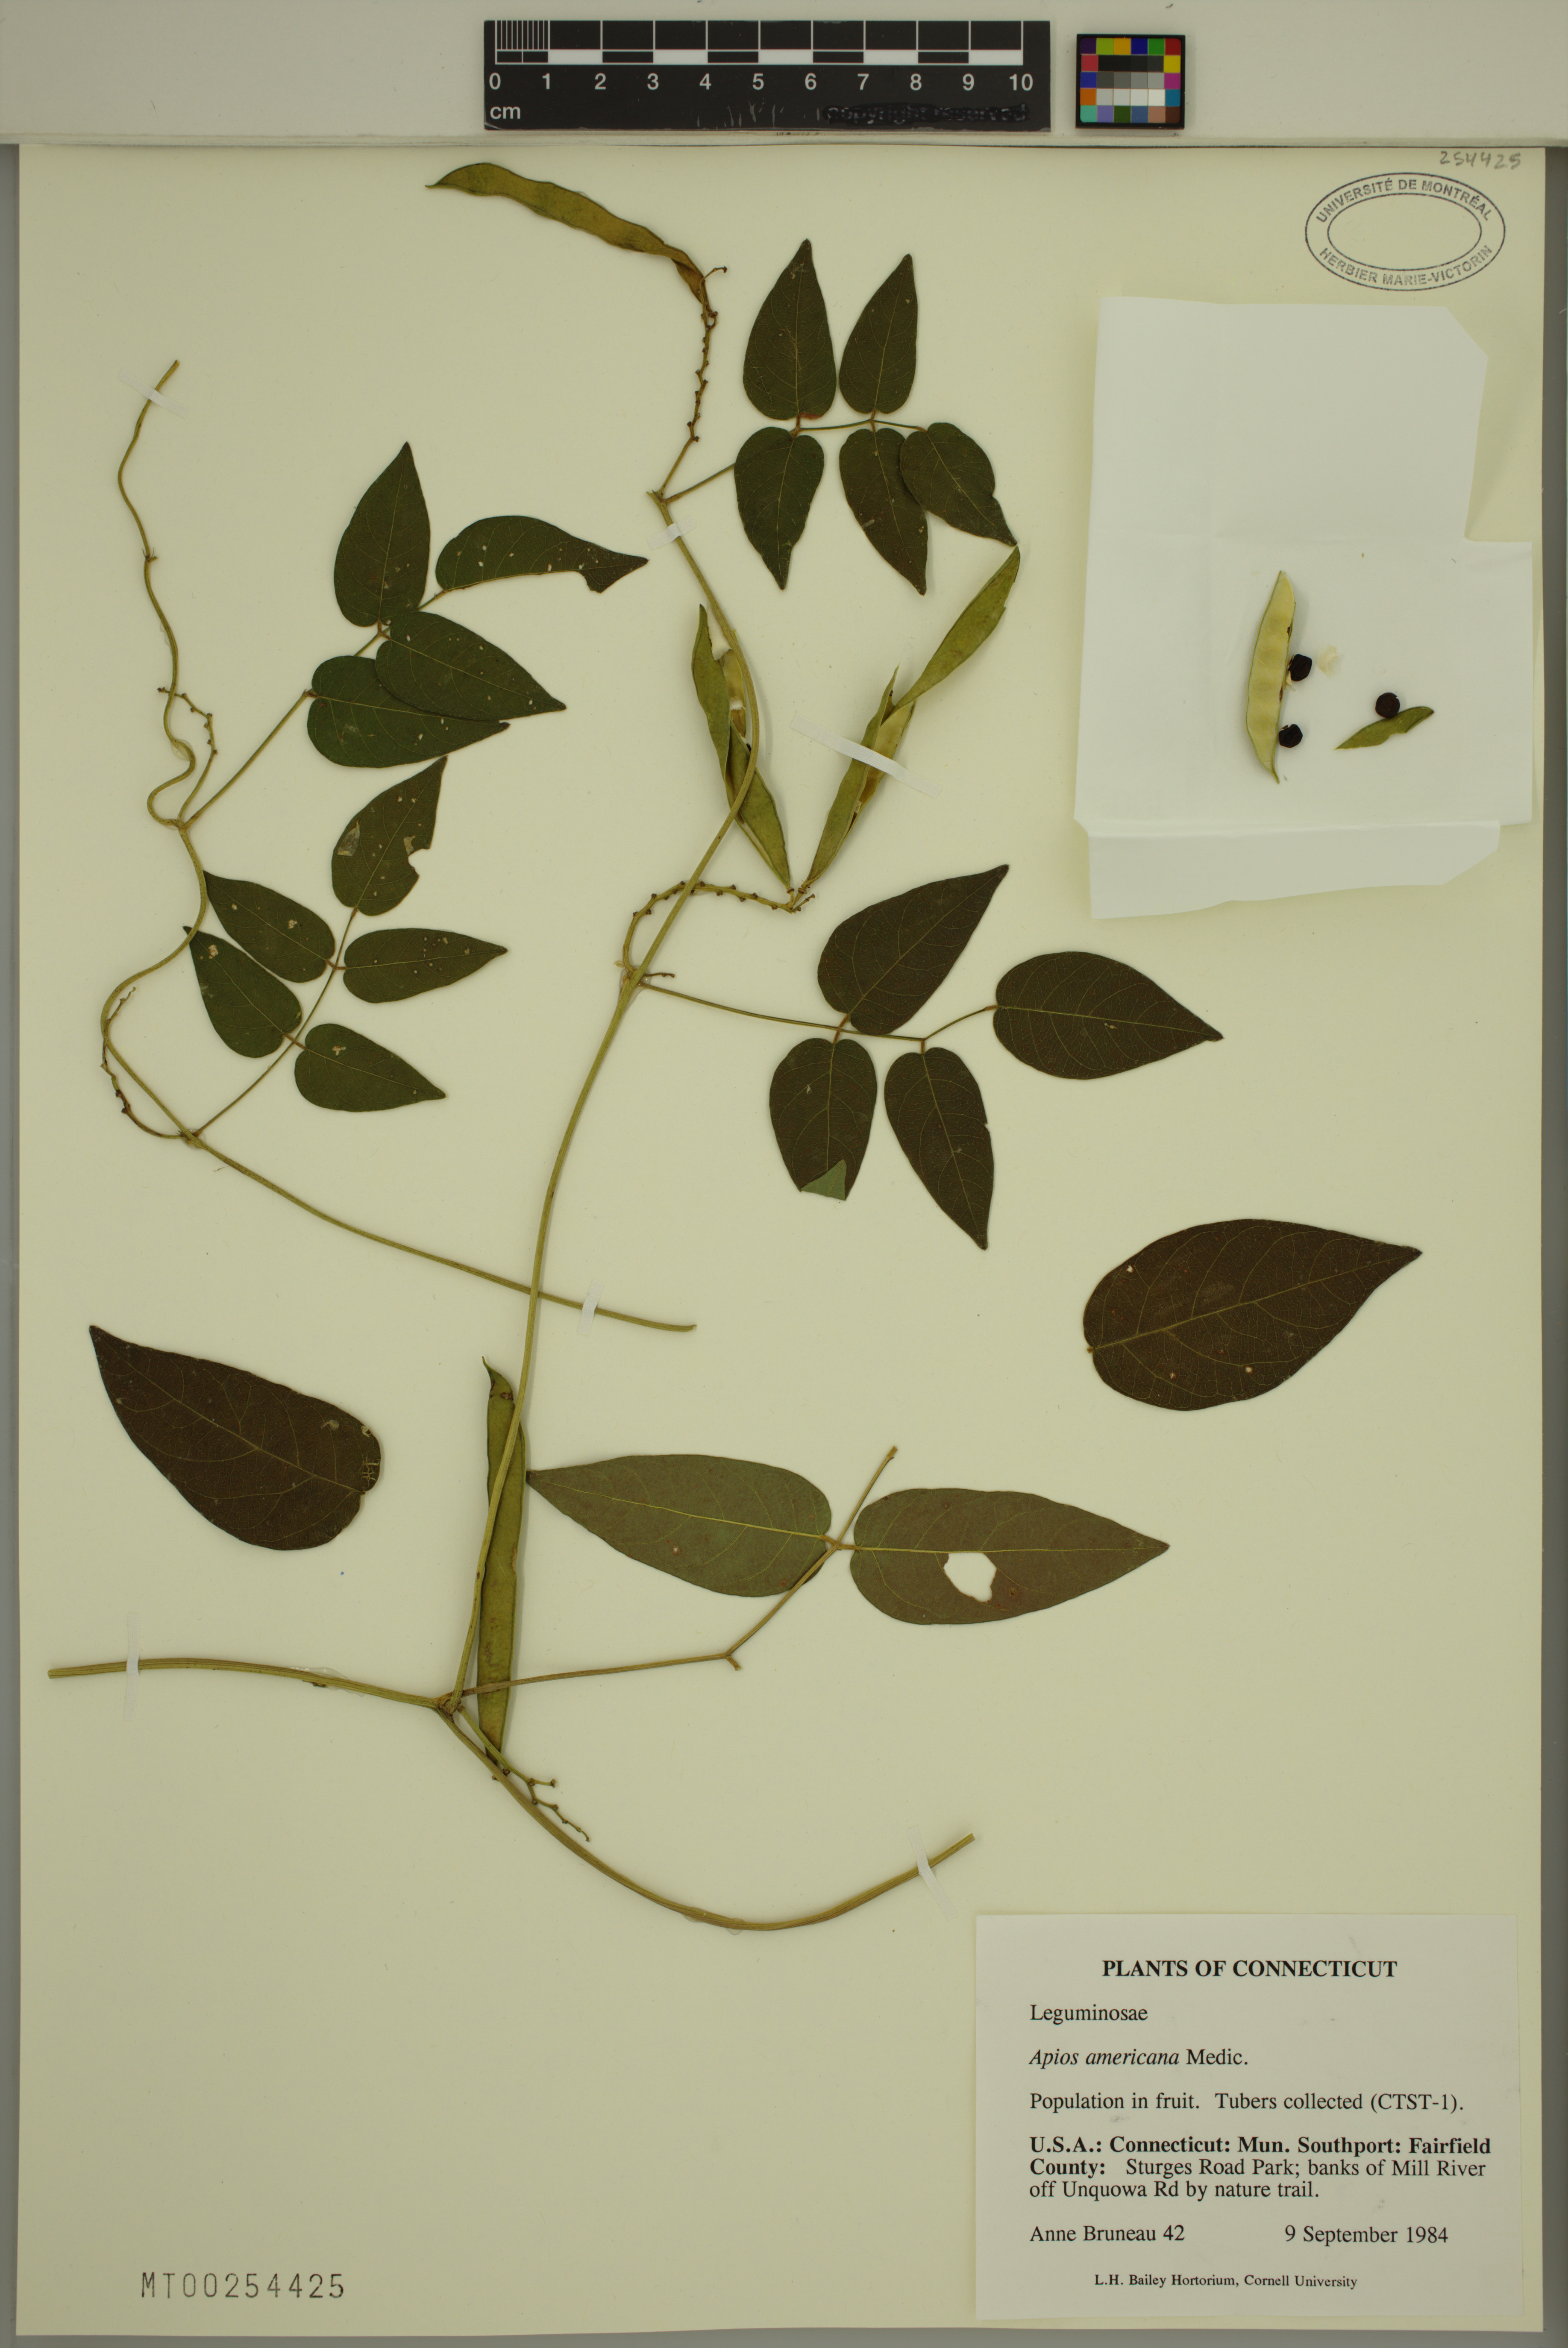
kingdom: Plantae
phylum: Tracheophyta
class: Magnoliopsida
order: Fabales
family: Fabaceae
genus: Apios
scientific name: Apios americana
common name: American potato-bean
